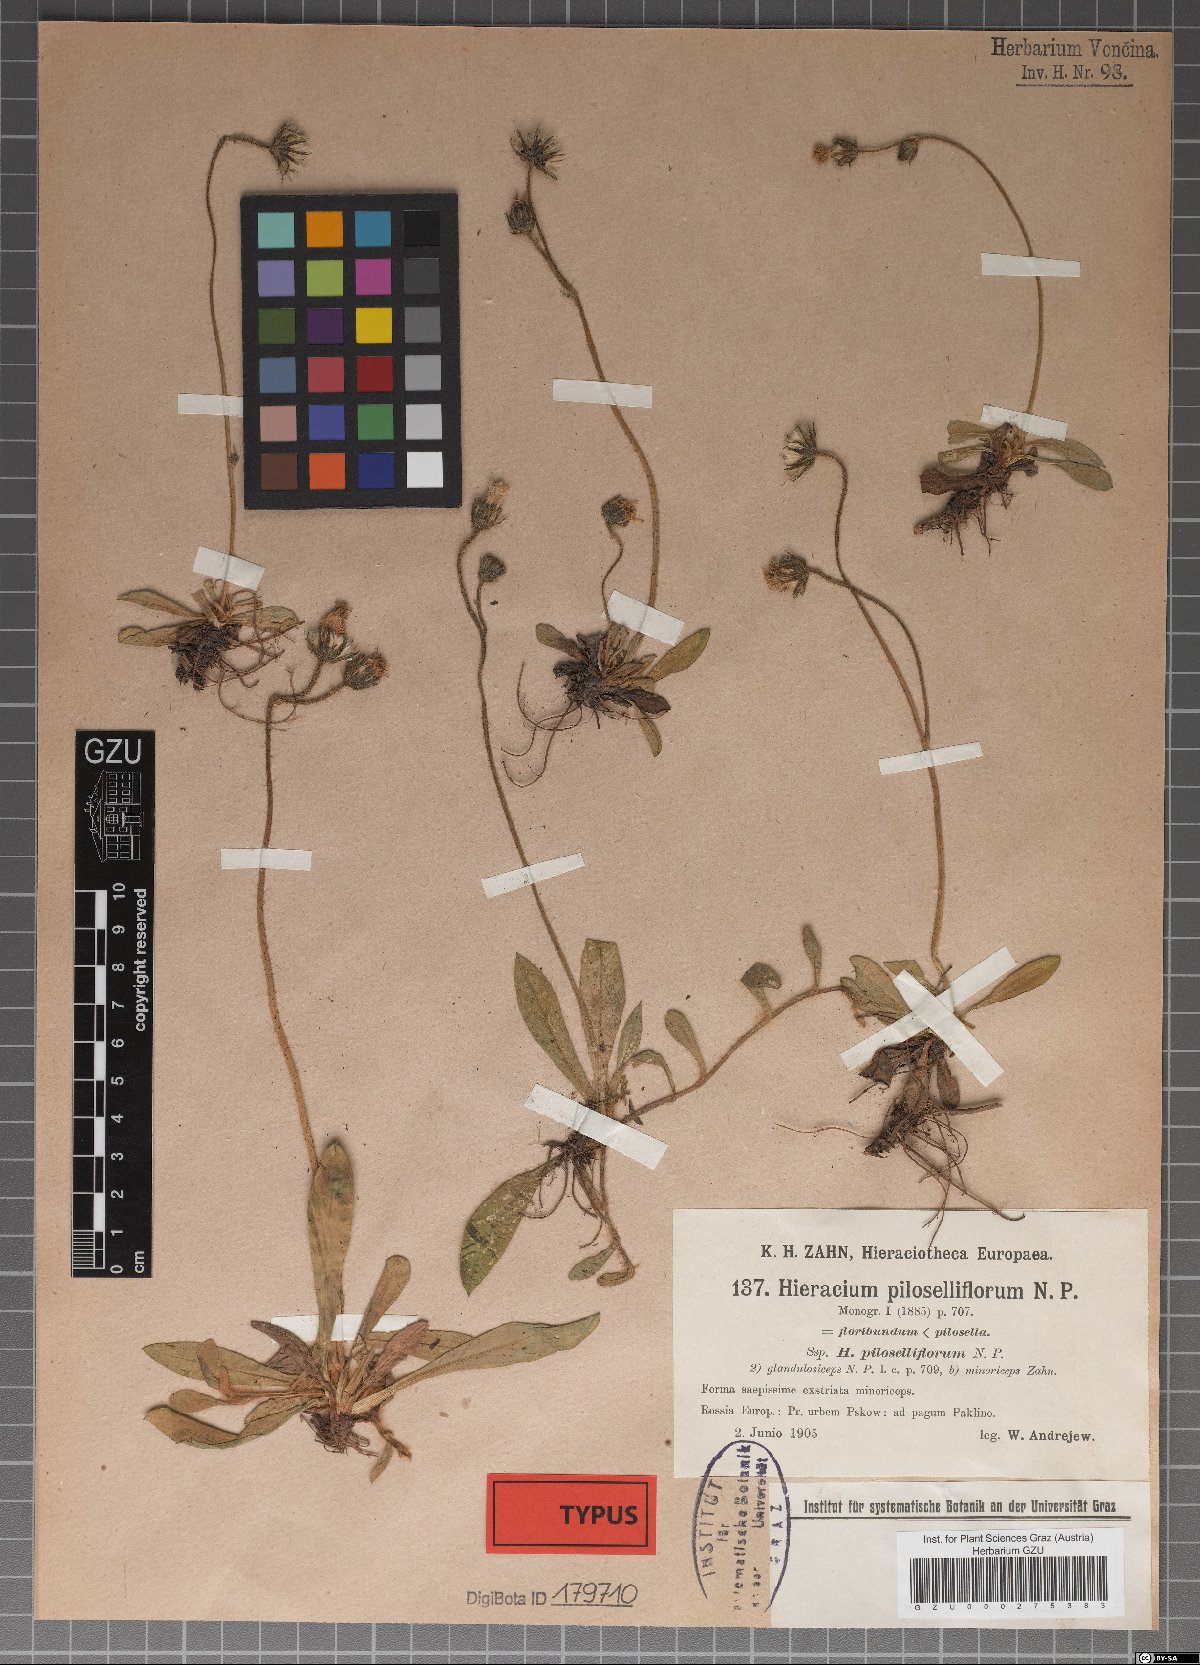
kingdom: Plantae
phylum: Tracheophyta
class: Magnoliopsida
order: Asterales
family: Asteraceae
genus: Pilosella
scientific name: Pilosella piloselliflora
